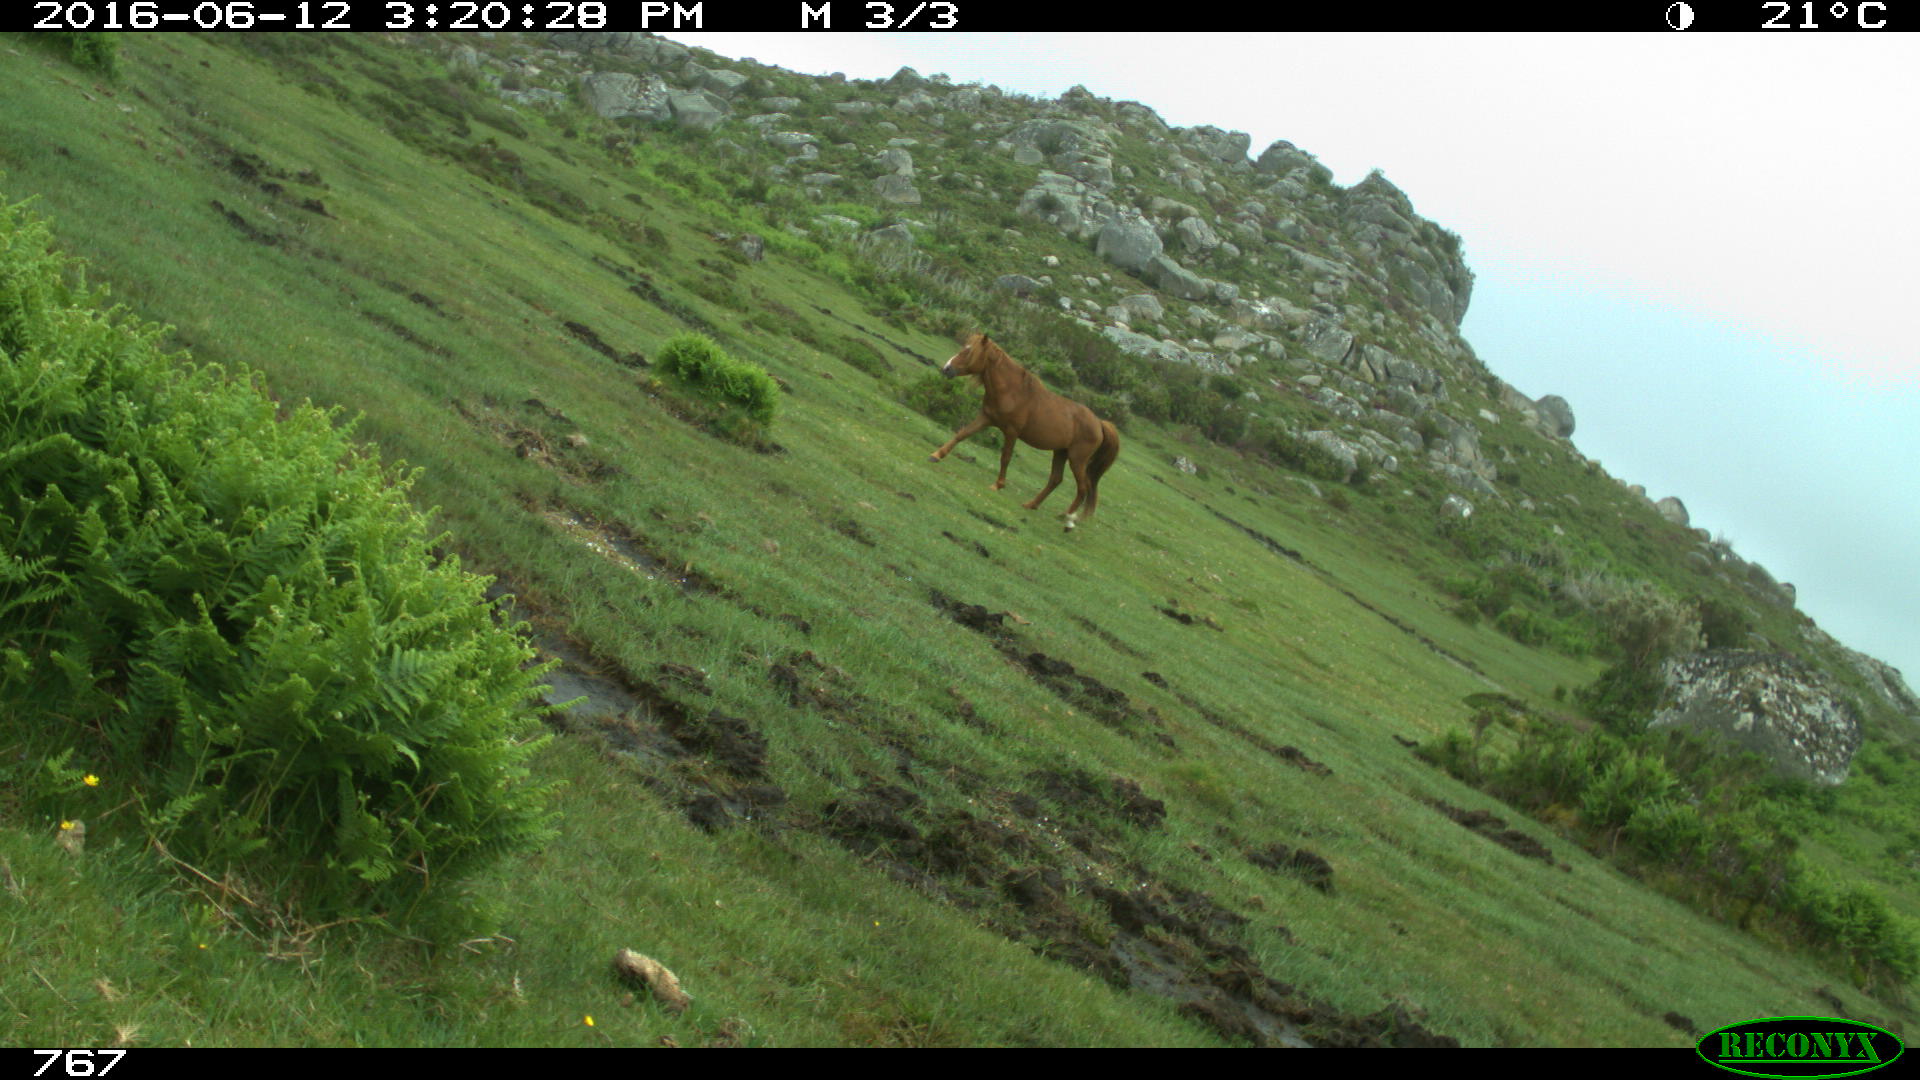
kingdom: Animalia
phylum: Chordata
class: Mammalia
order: Perissodactyla
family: Equidae
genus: Equus
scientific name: Equus caballus
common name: Horse
